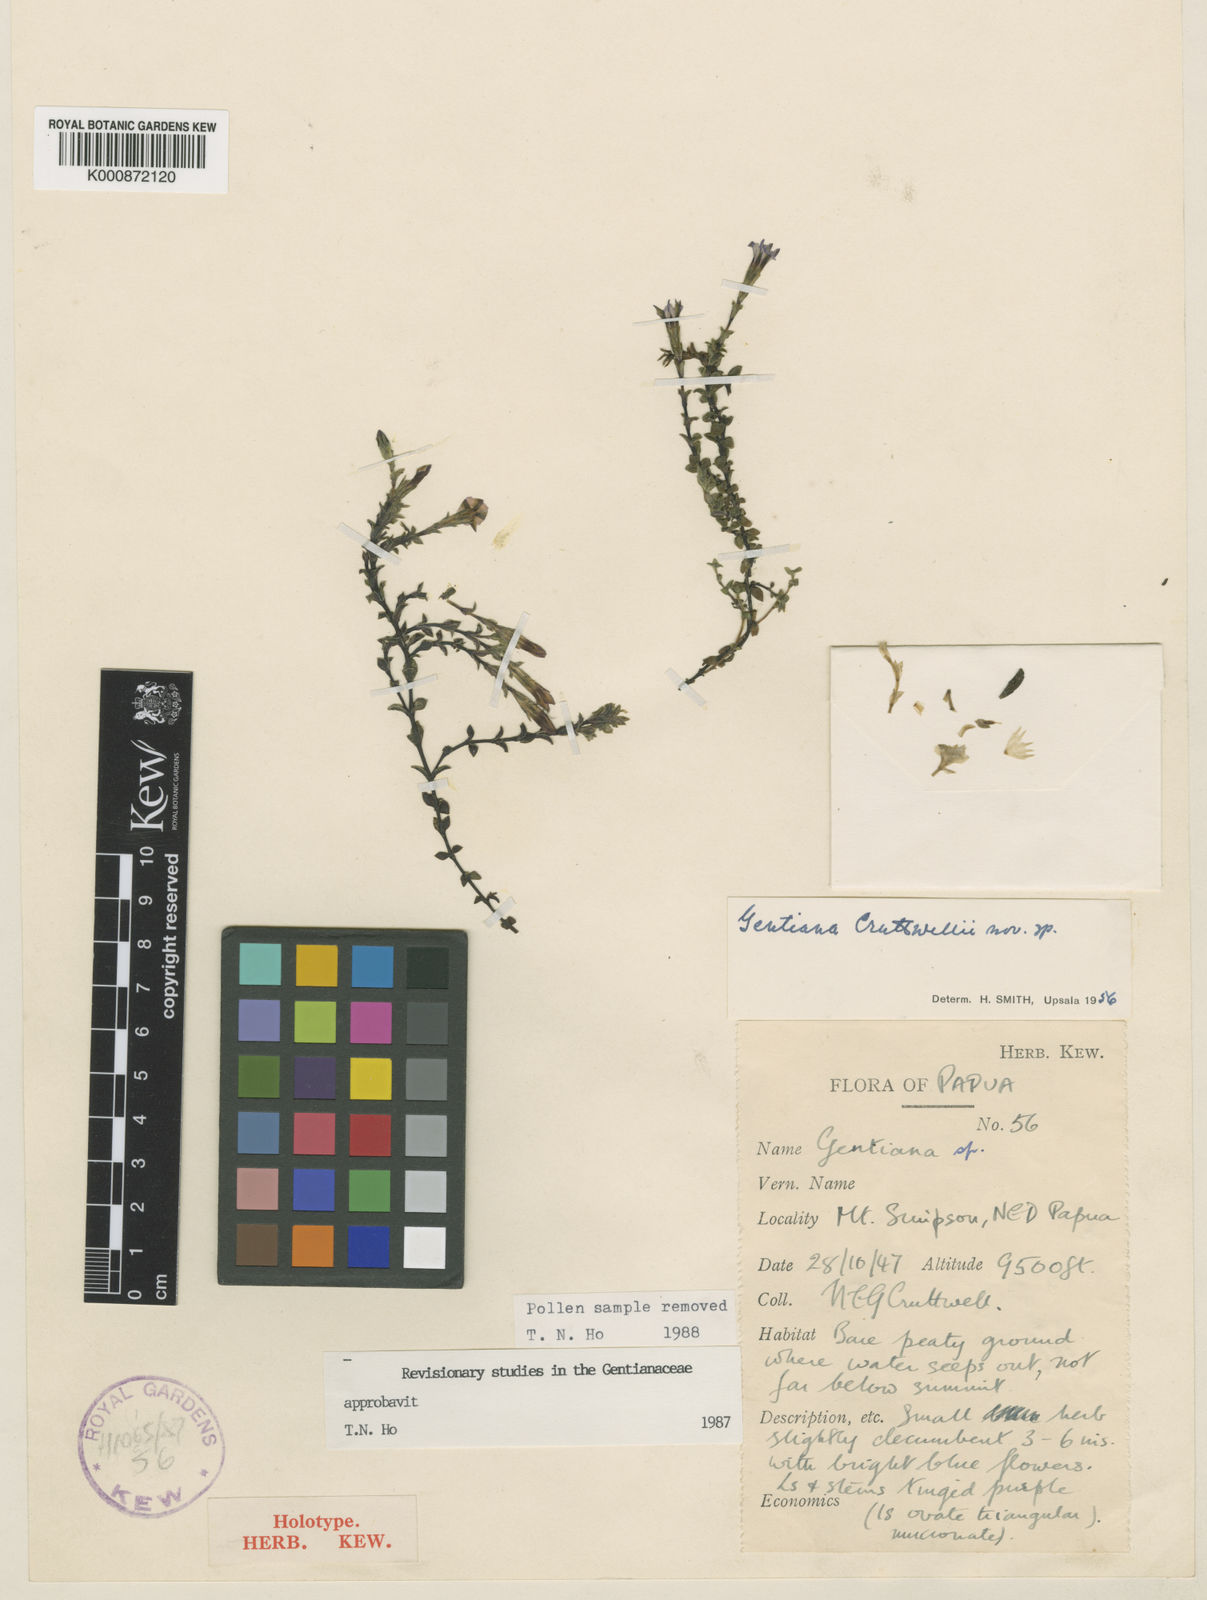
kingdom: Plantae
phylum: Tracheophyta
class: Magnoliopsida
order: Gentianales
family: Gentianaceae
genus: Gentiana
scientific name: Gentiana cruttwellii
